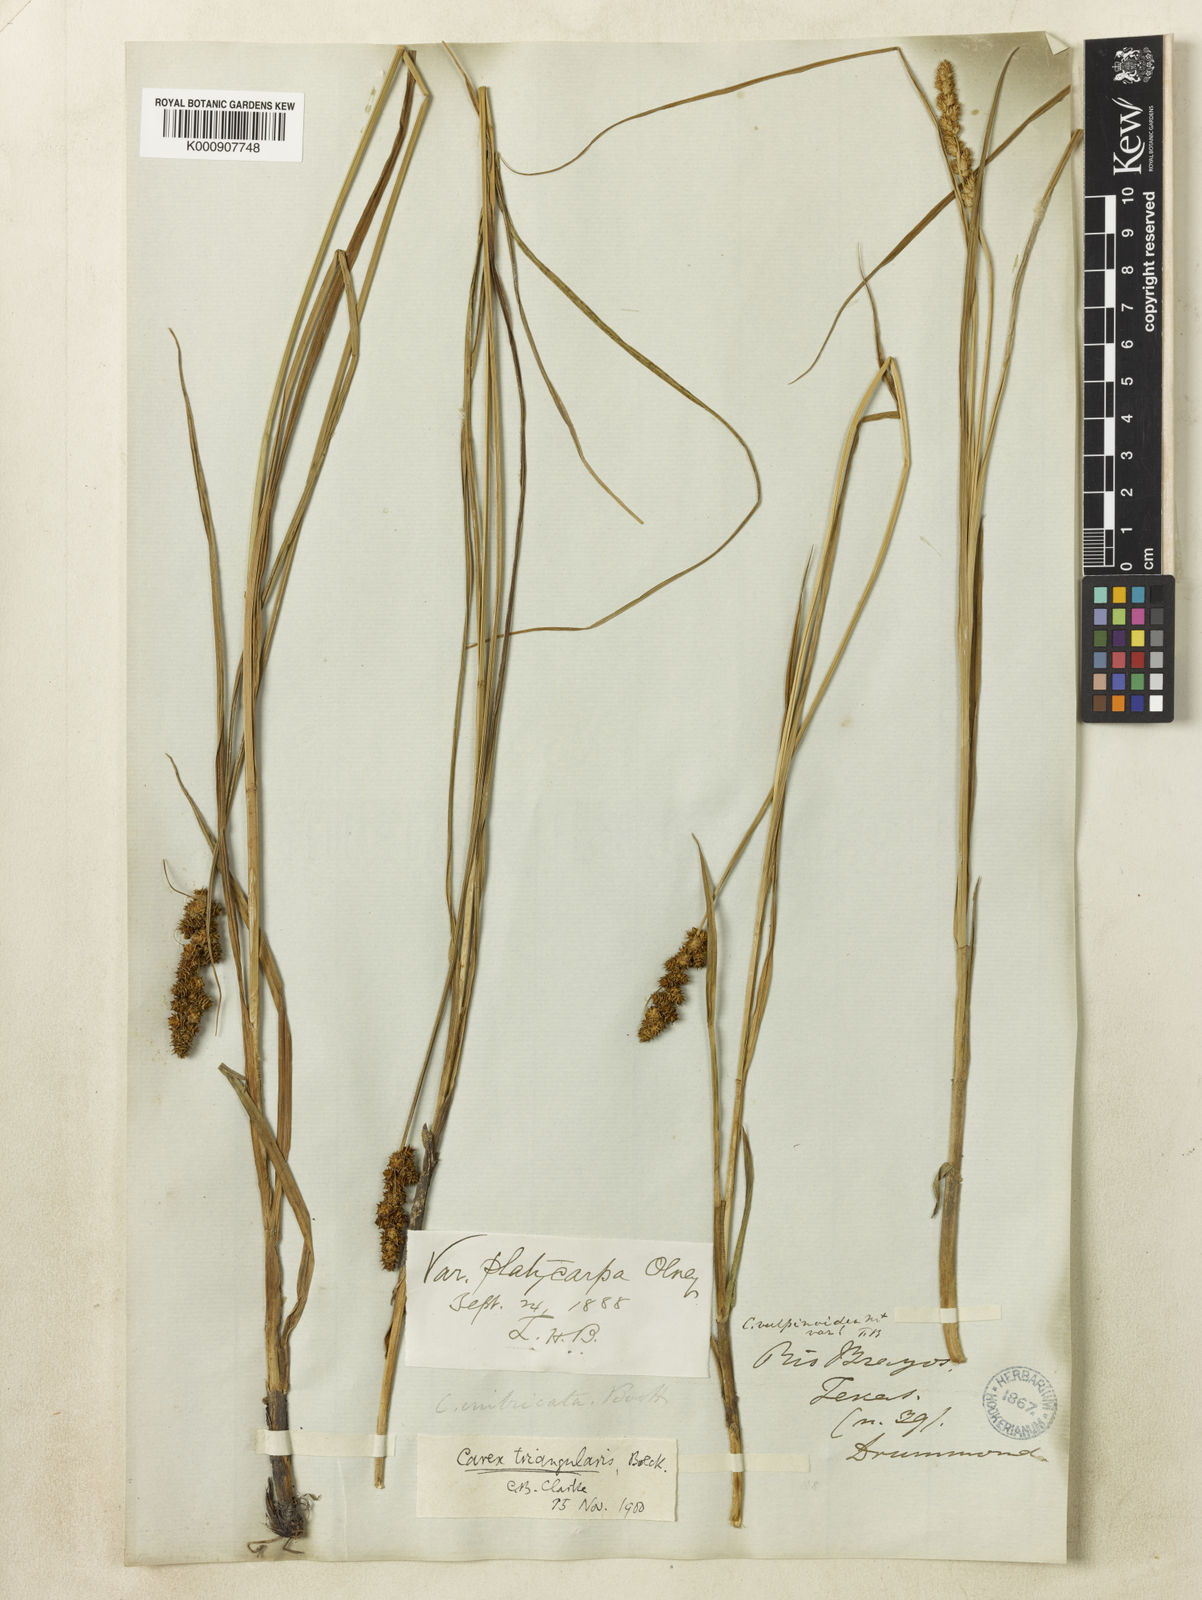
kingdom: Plantae
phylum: Tracheophyta
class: Liliopsida
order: Poales
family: Cyperaceae
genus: Carex
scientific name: Carex triangularis
